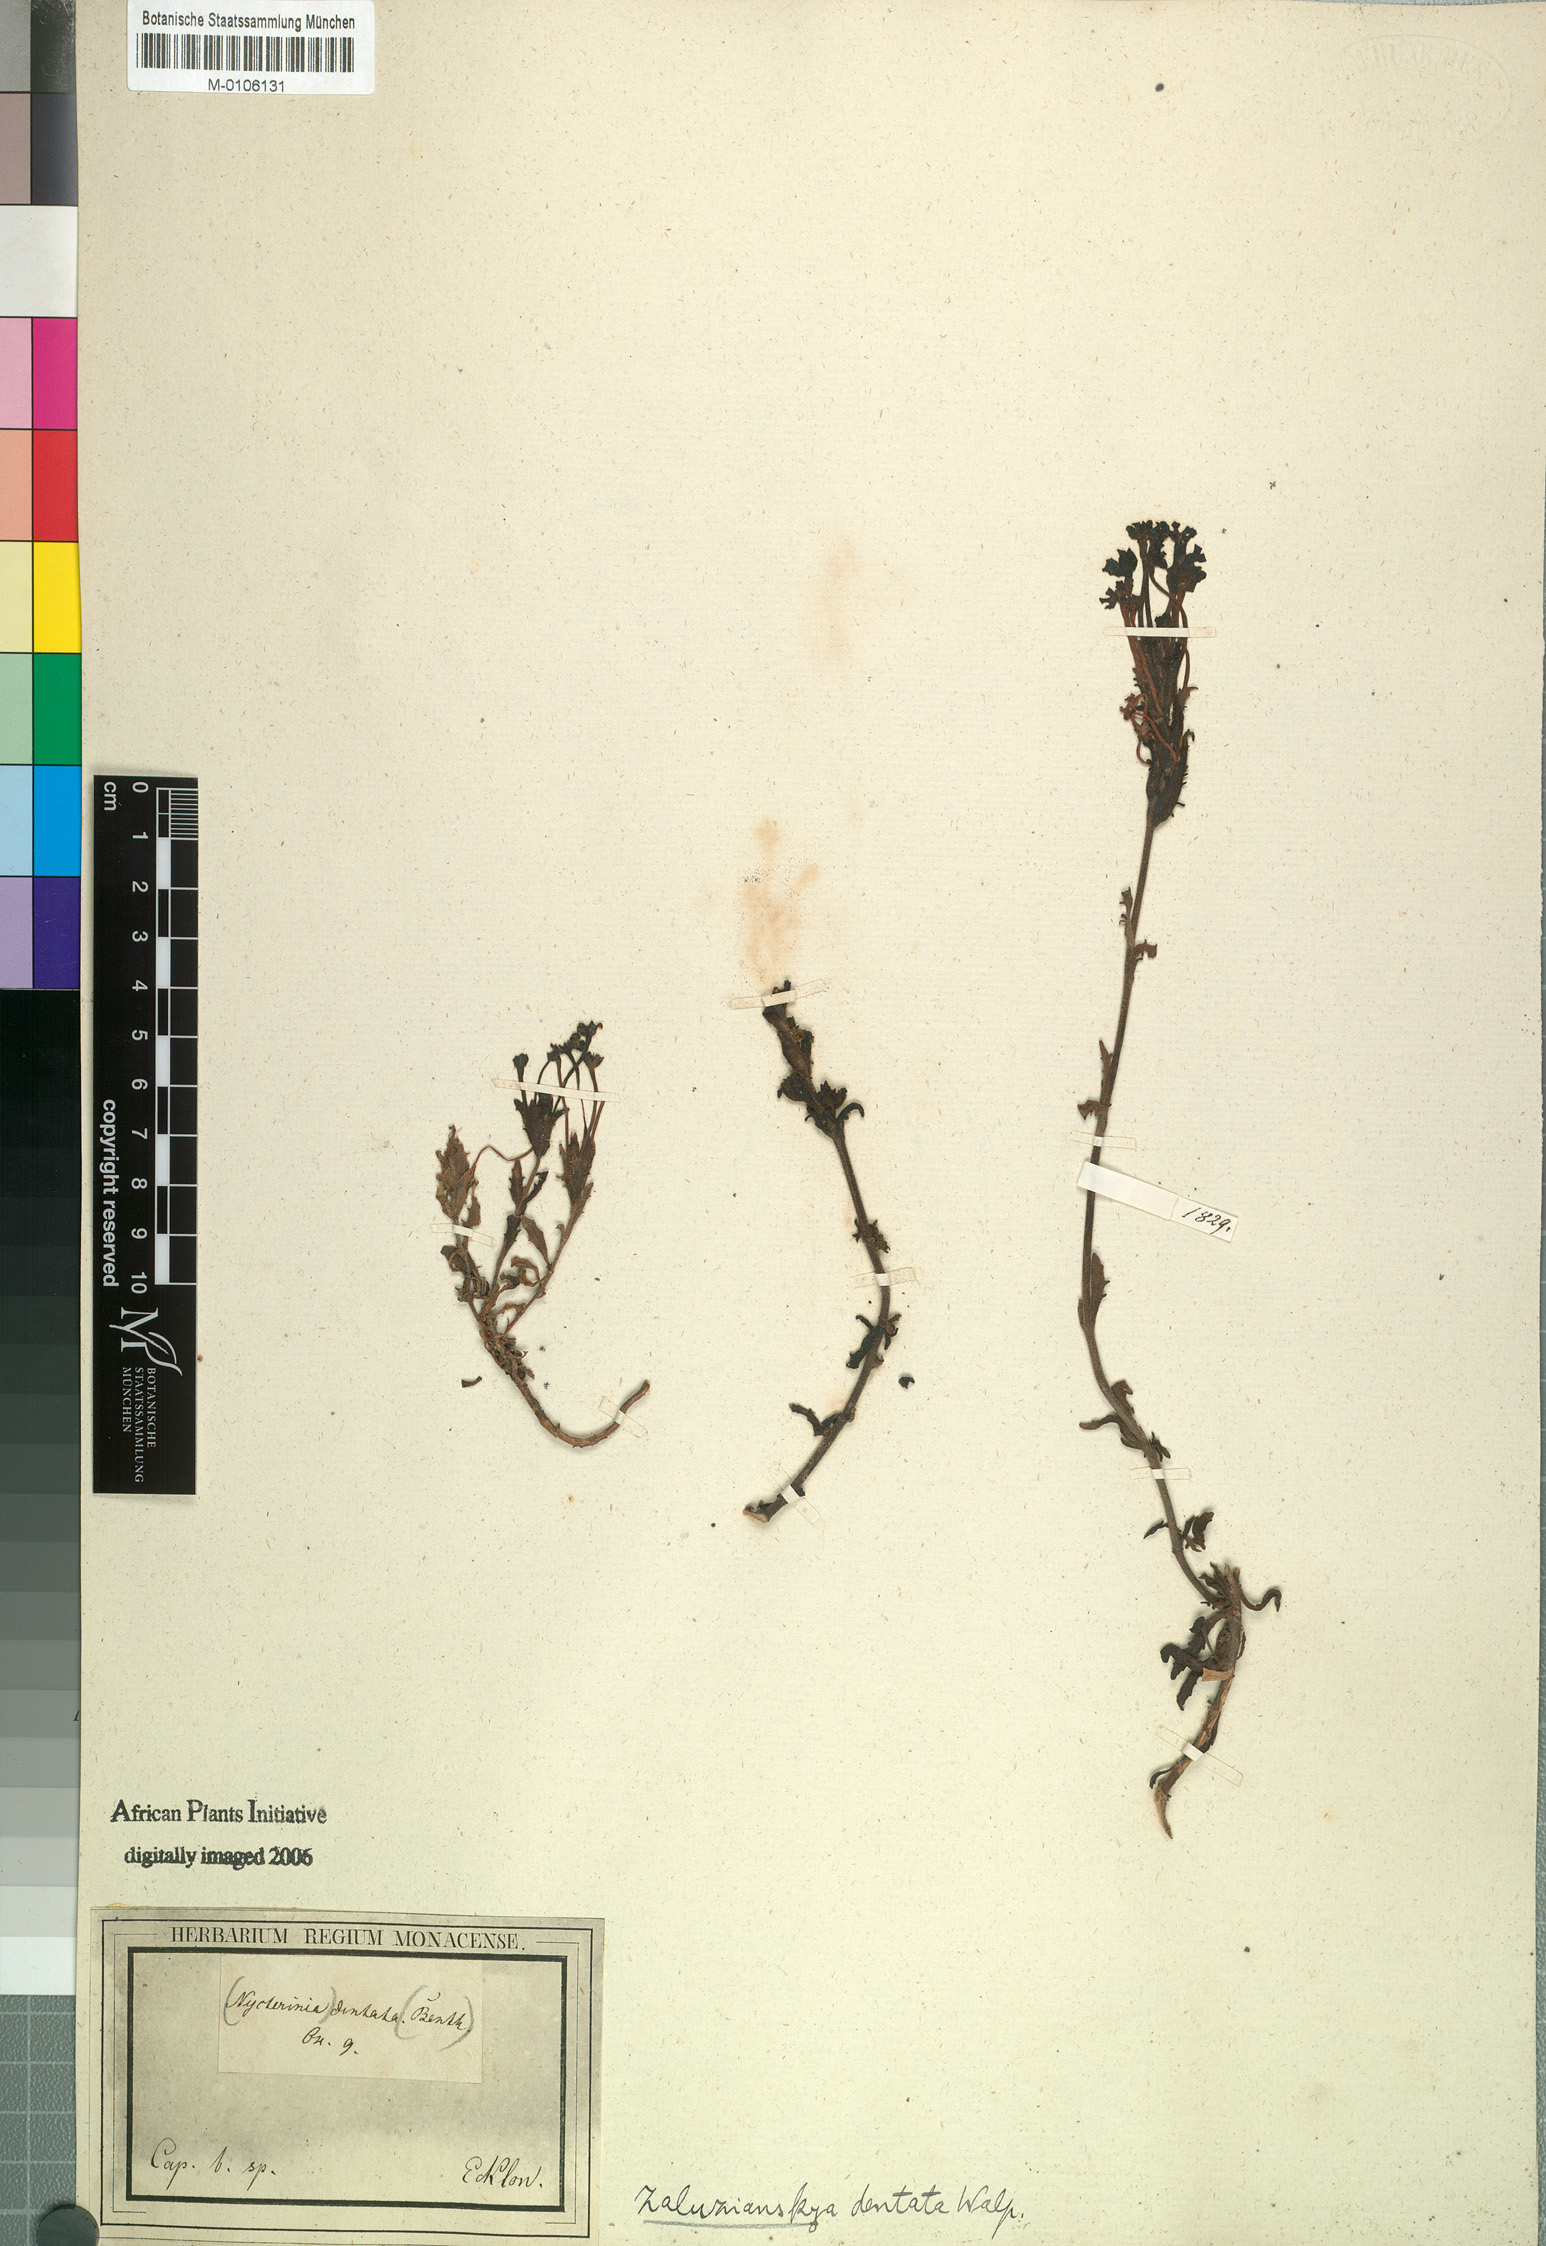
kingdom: Plantae
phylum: Tracheophyta
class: Magnoliopsida
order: Lamiales
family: Scrophulariaceae
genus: Zaluzianskya
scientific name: Zaluzianskya capensis
